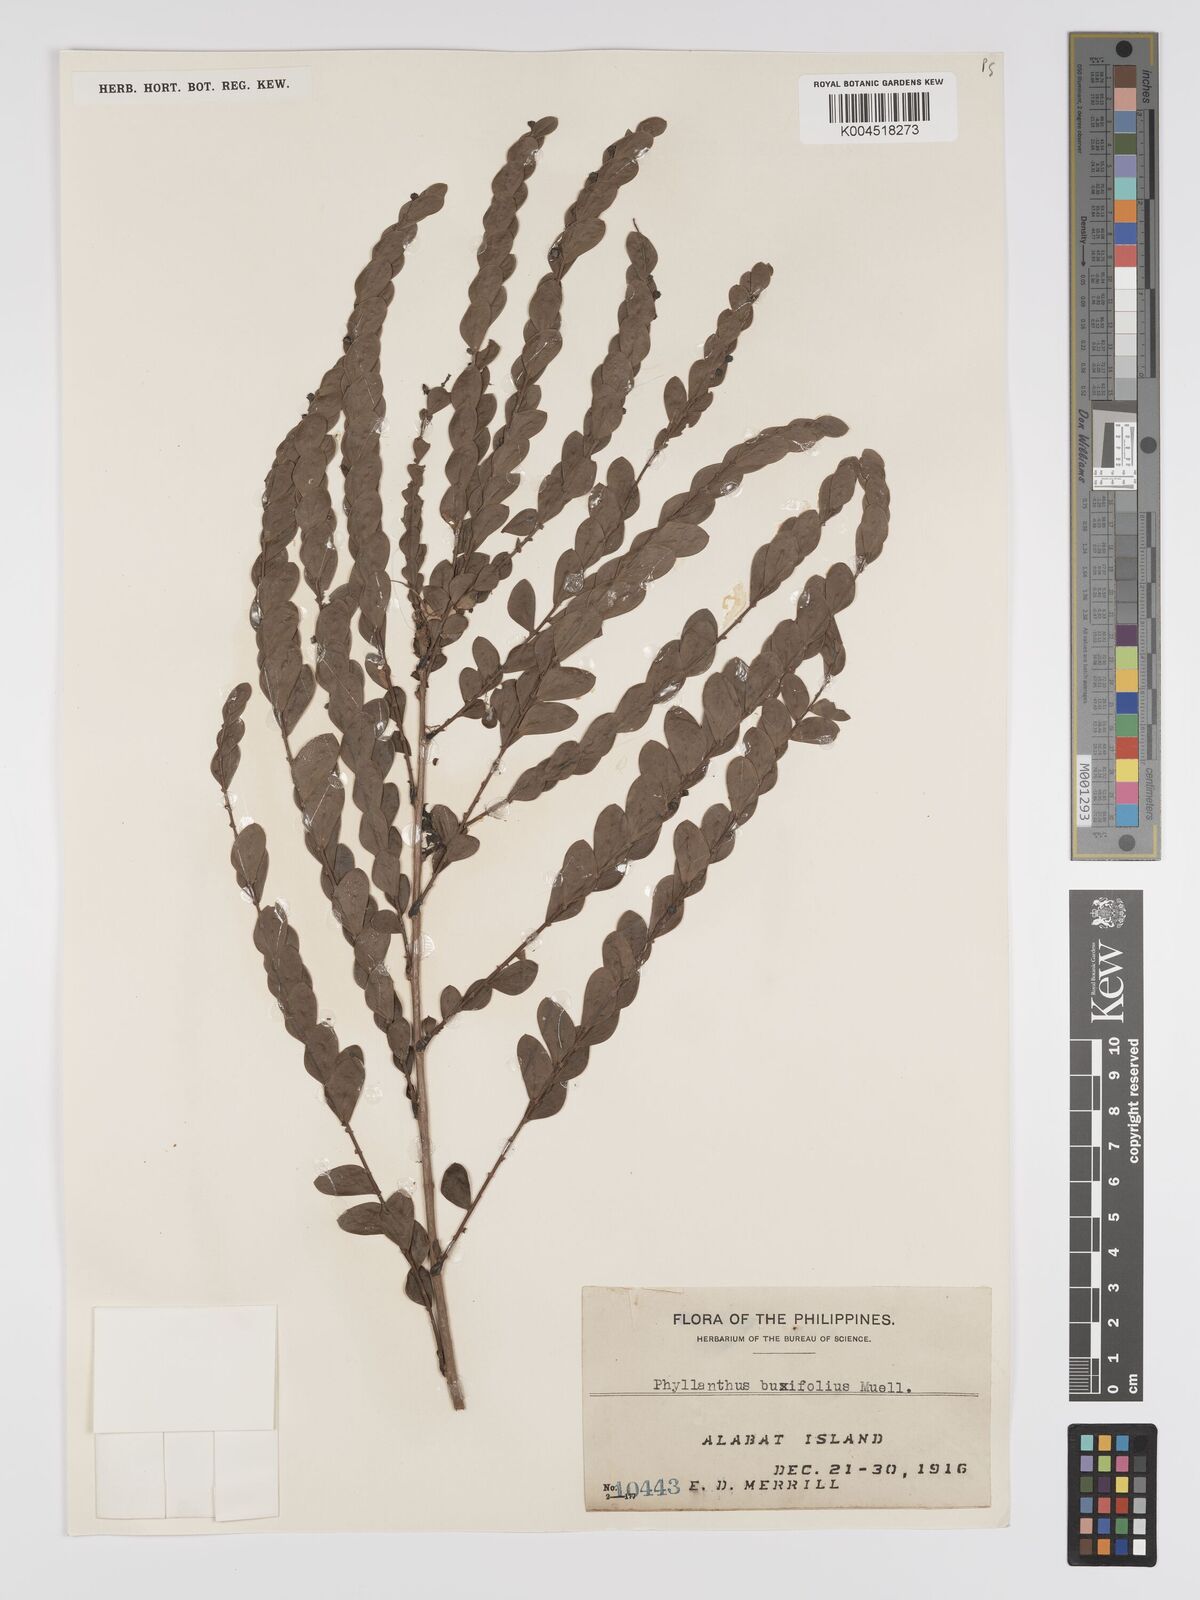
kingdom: Plantae
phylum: Tracheophyta
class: Magnoliopsida
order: Malpighiales
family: Phyllanthaceae
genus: Phyllanthus
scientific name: Phyllanthus buxifolius
